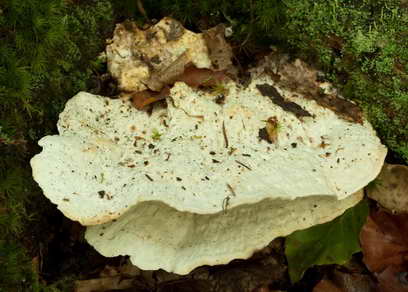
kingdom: Fungi
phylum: Basidiomycota
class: Agaricomycetes
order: Polyporales
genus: Calcipostia
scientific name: Calcipostia guttulata
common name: dråbe-kødporesvamp
